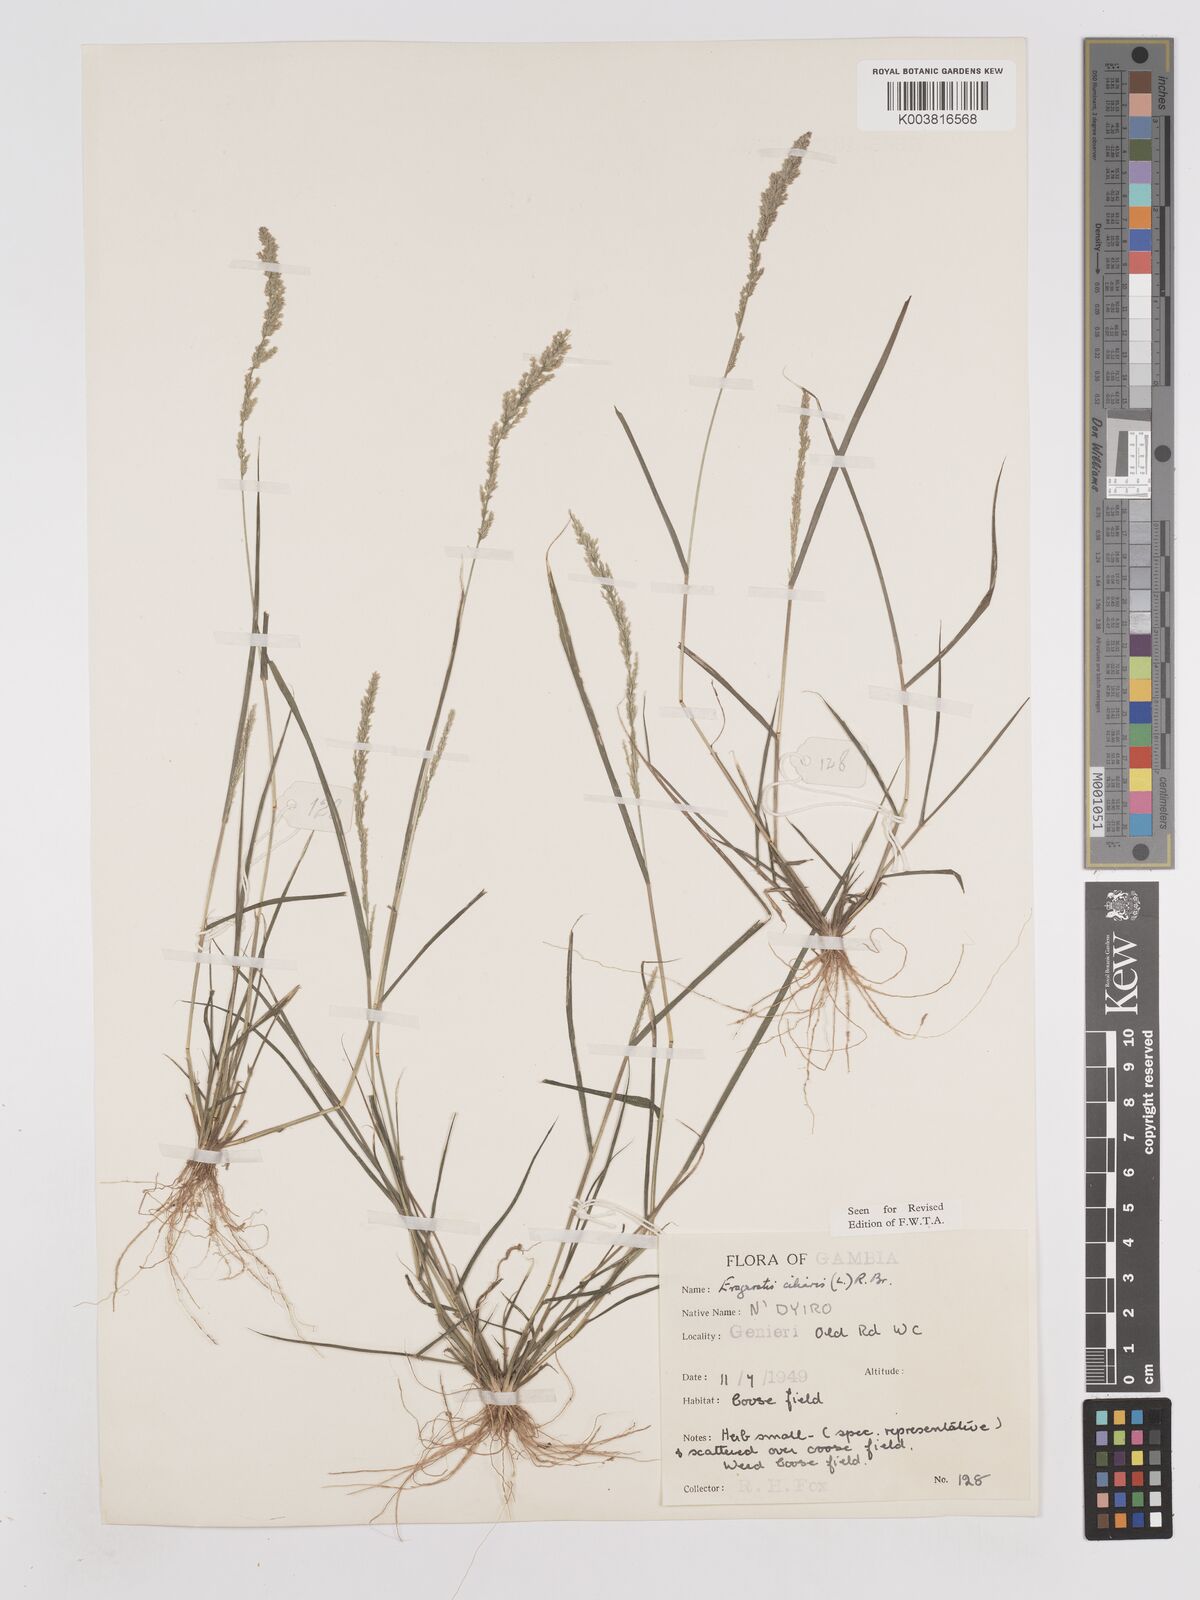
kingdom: Plantae
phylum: Tracheophyta
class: Liliopsida
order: Poales
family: Poaceae
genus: Eragrostis
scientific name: Eragrostis ciliaris
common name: Gophertail lovegrass
